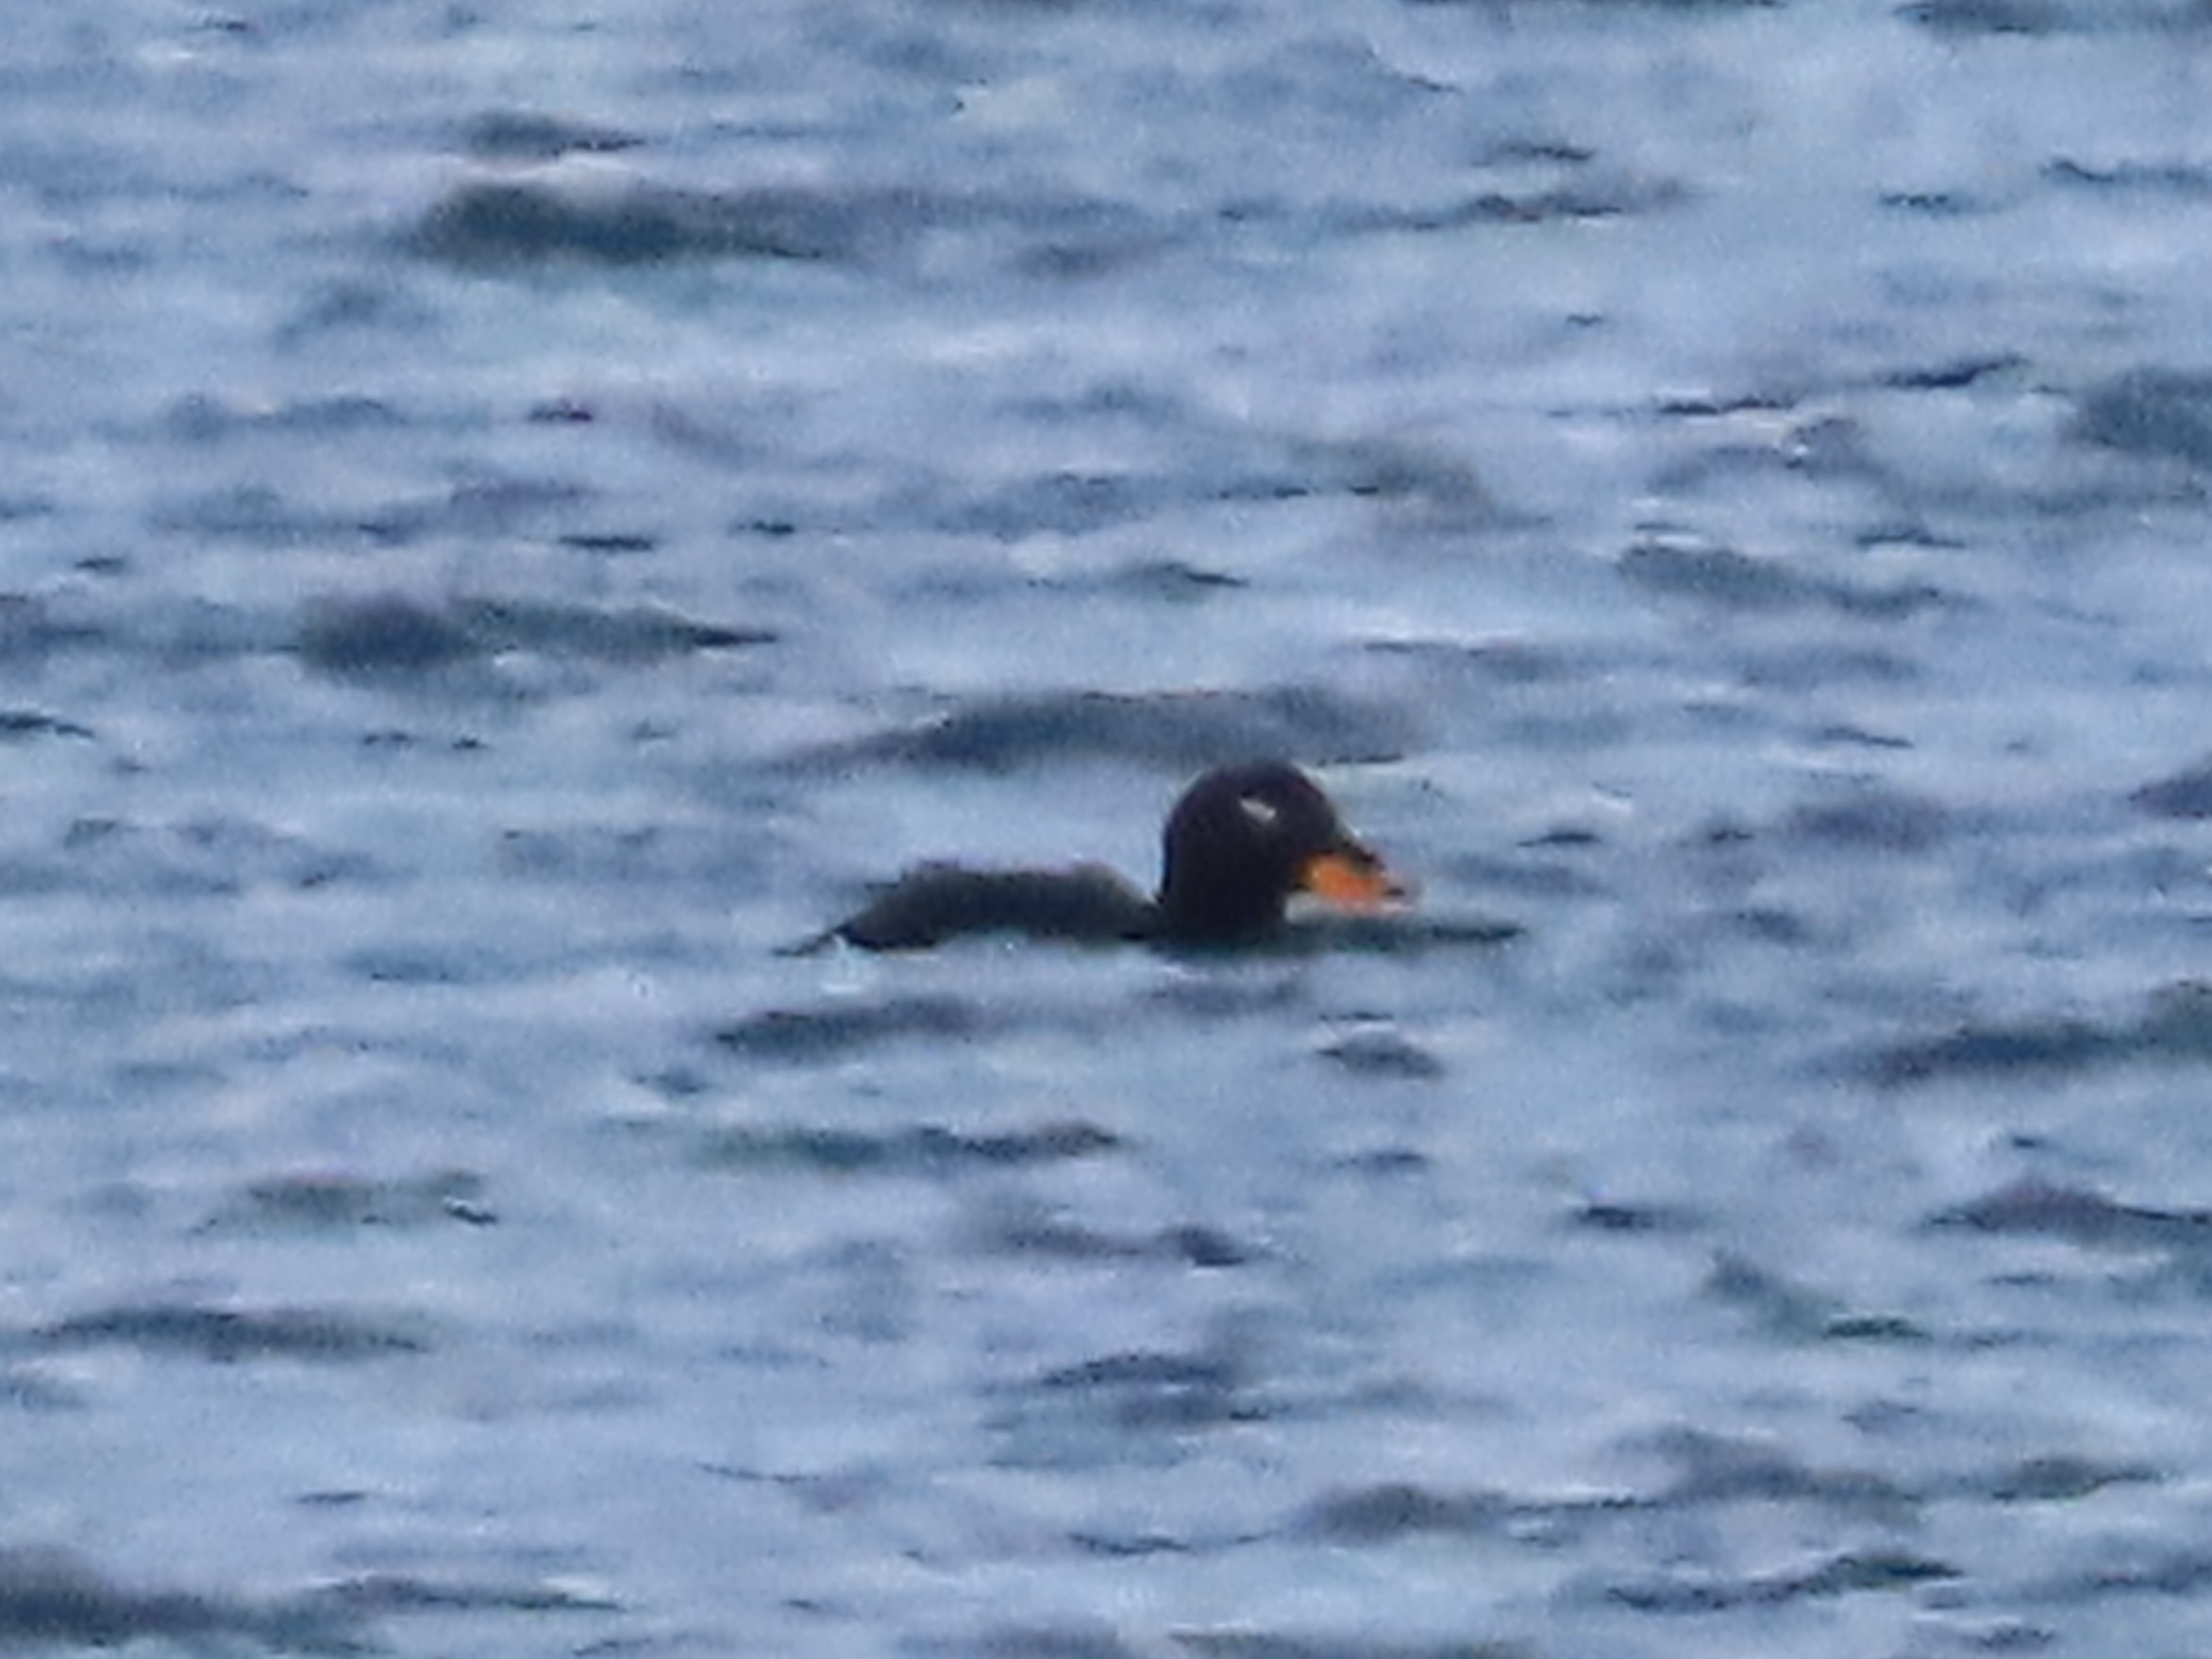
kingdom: Animalia
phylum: Chordata
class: Aves
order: Anseriformes
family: Anatidae
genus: Melanitta
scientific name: Melanitta fusca
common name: Fløjlsand
